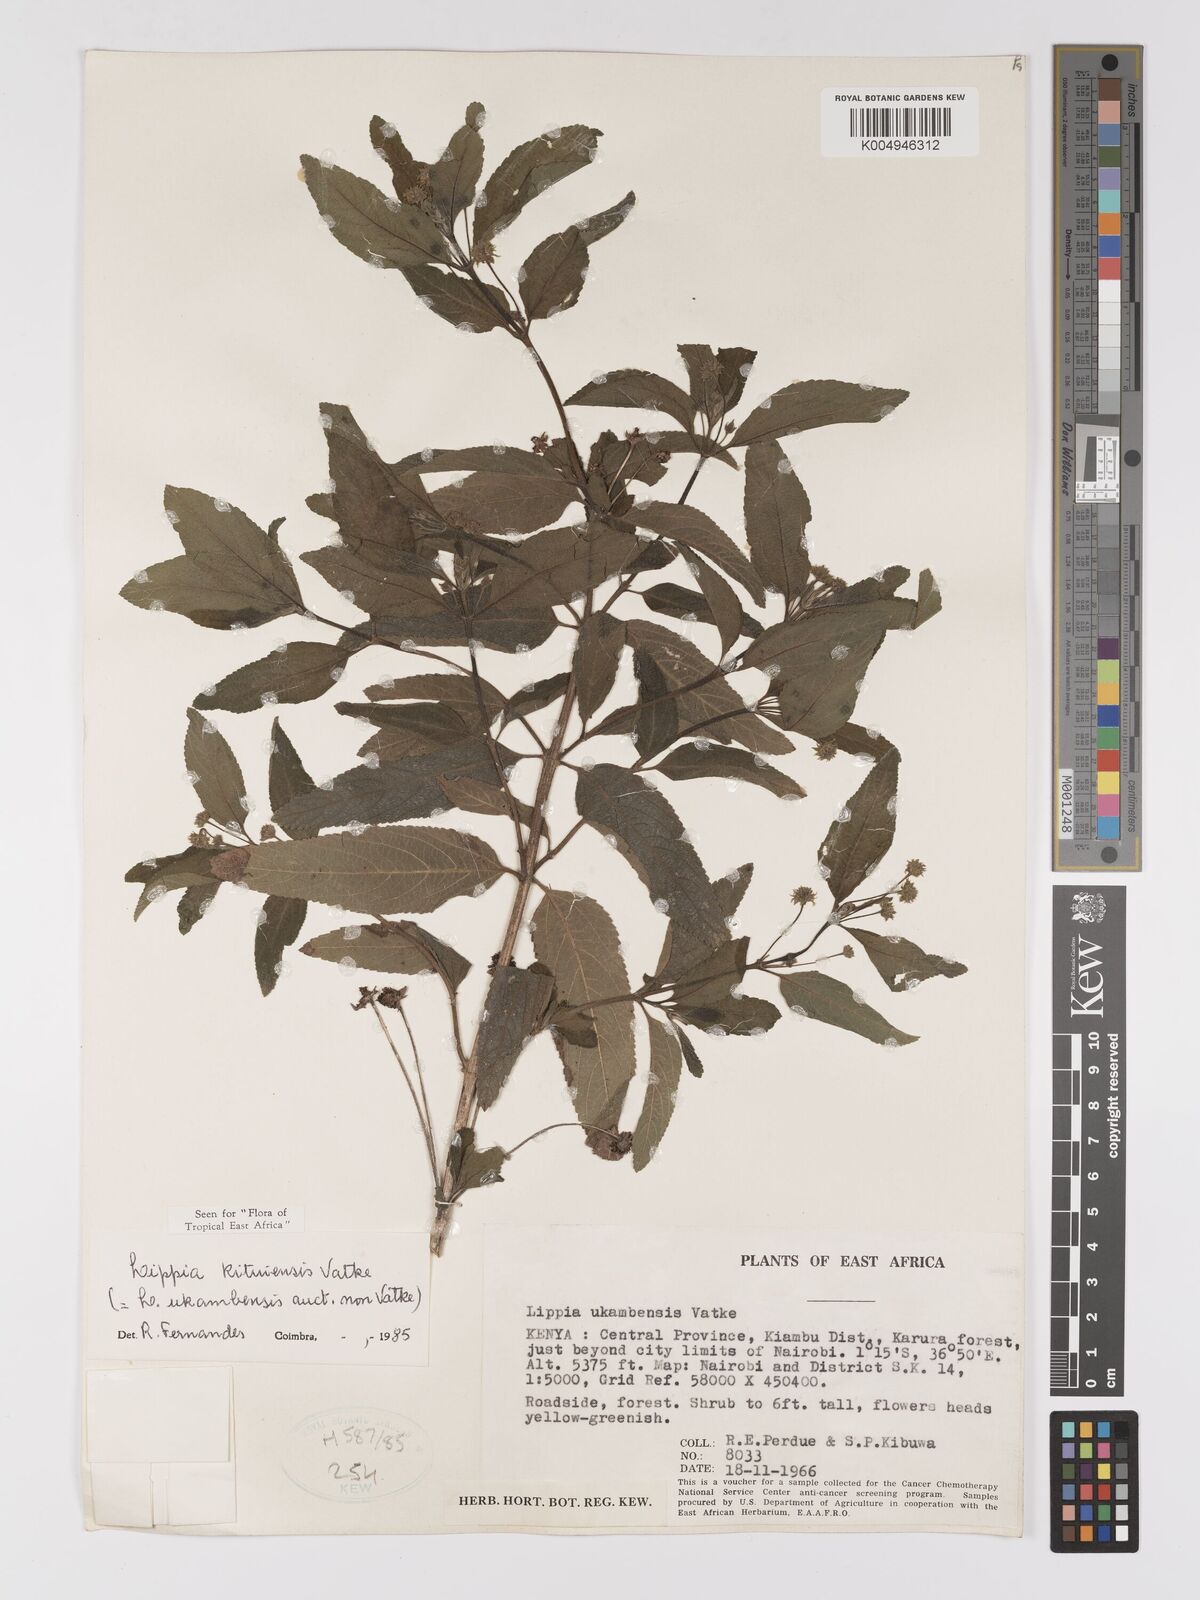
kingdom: Plantae
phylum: Tracheophyta
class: Magnoliopsida
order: Lamiales
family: Verbenaceae
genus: Lippia
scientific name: Lippia kituiensis
